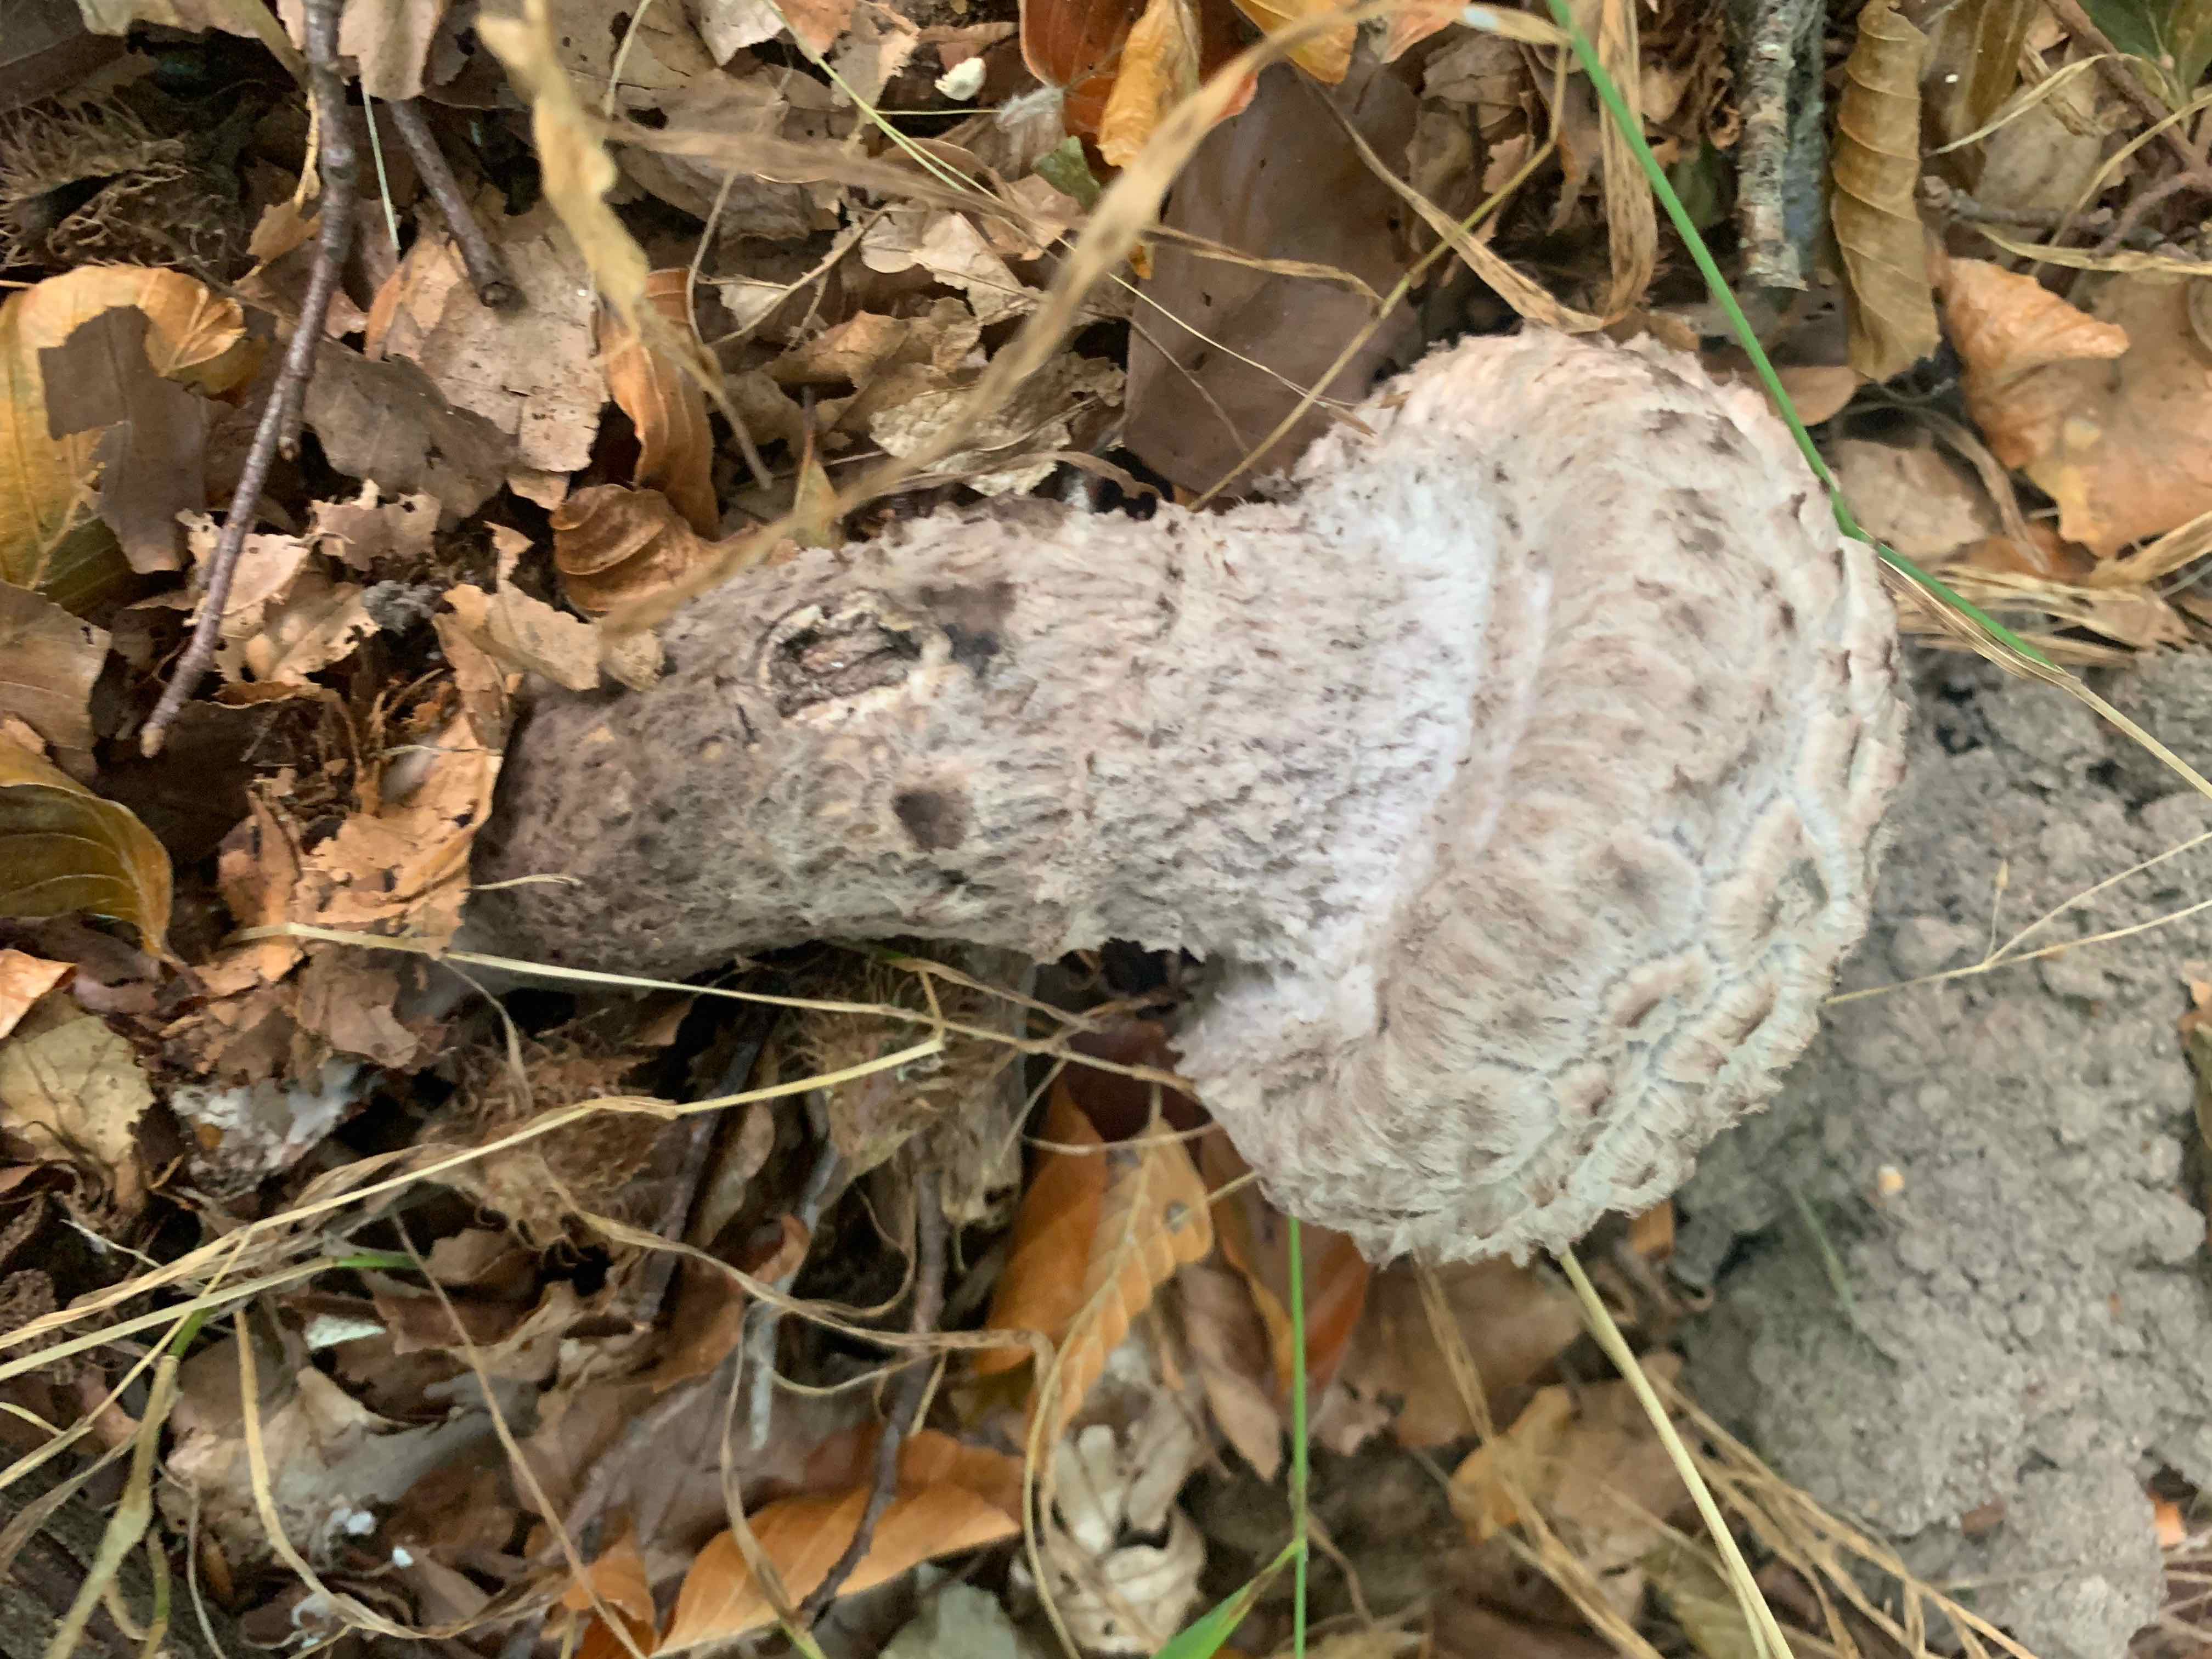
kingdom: Fungi
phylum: Basidiomycota
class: Agaricomycetes
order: Boletales
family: Boletaceae
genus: Strobilomyces
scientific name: Strobilomyces strobilaceus
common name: koglerørhat
